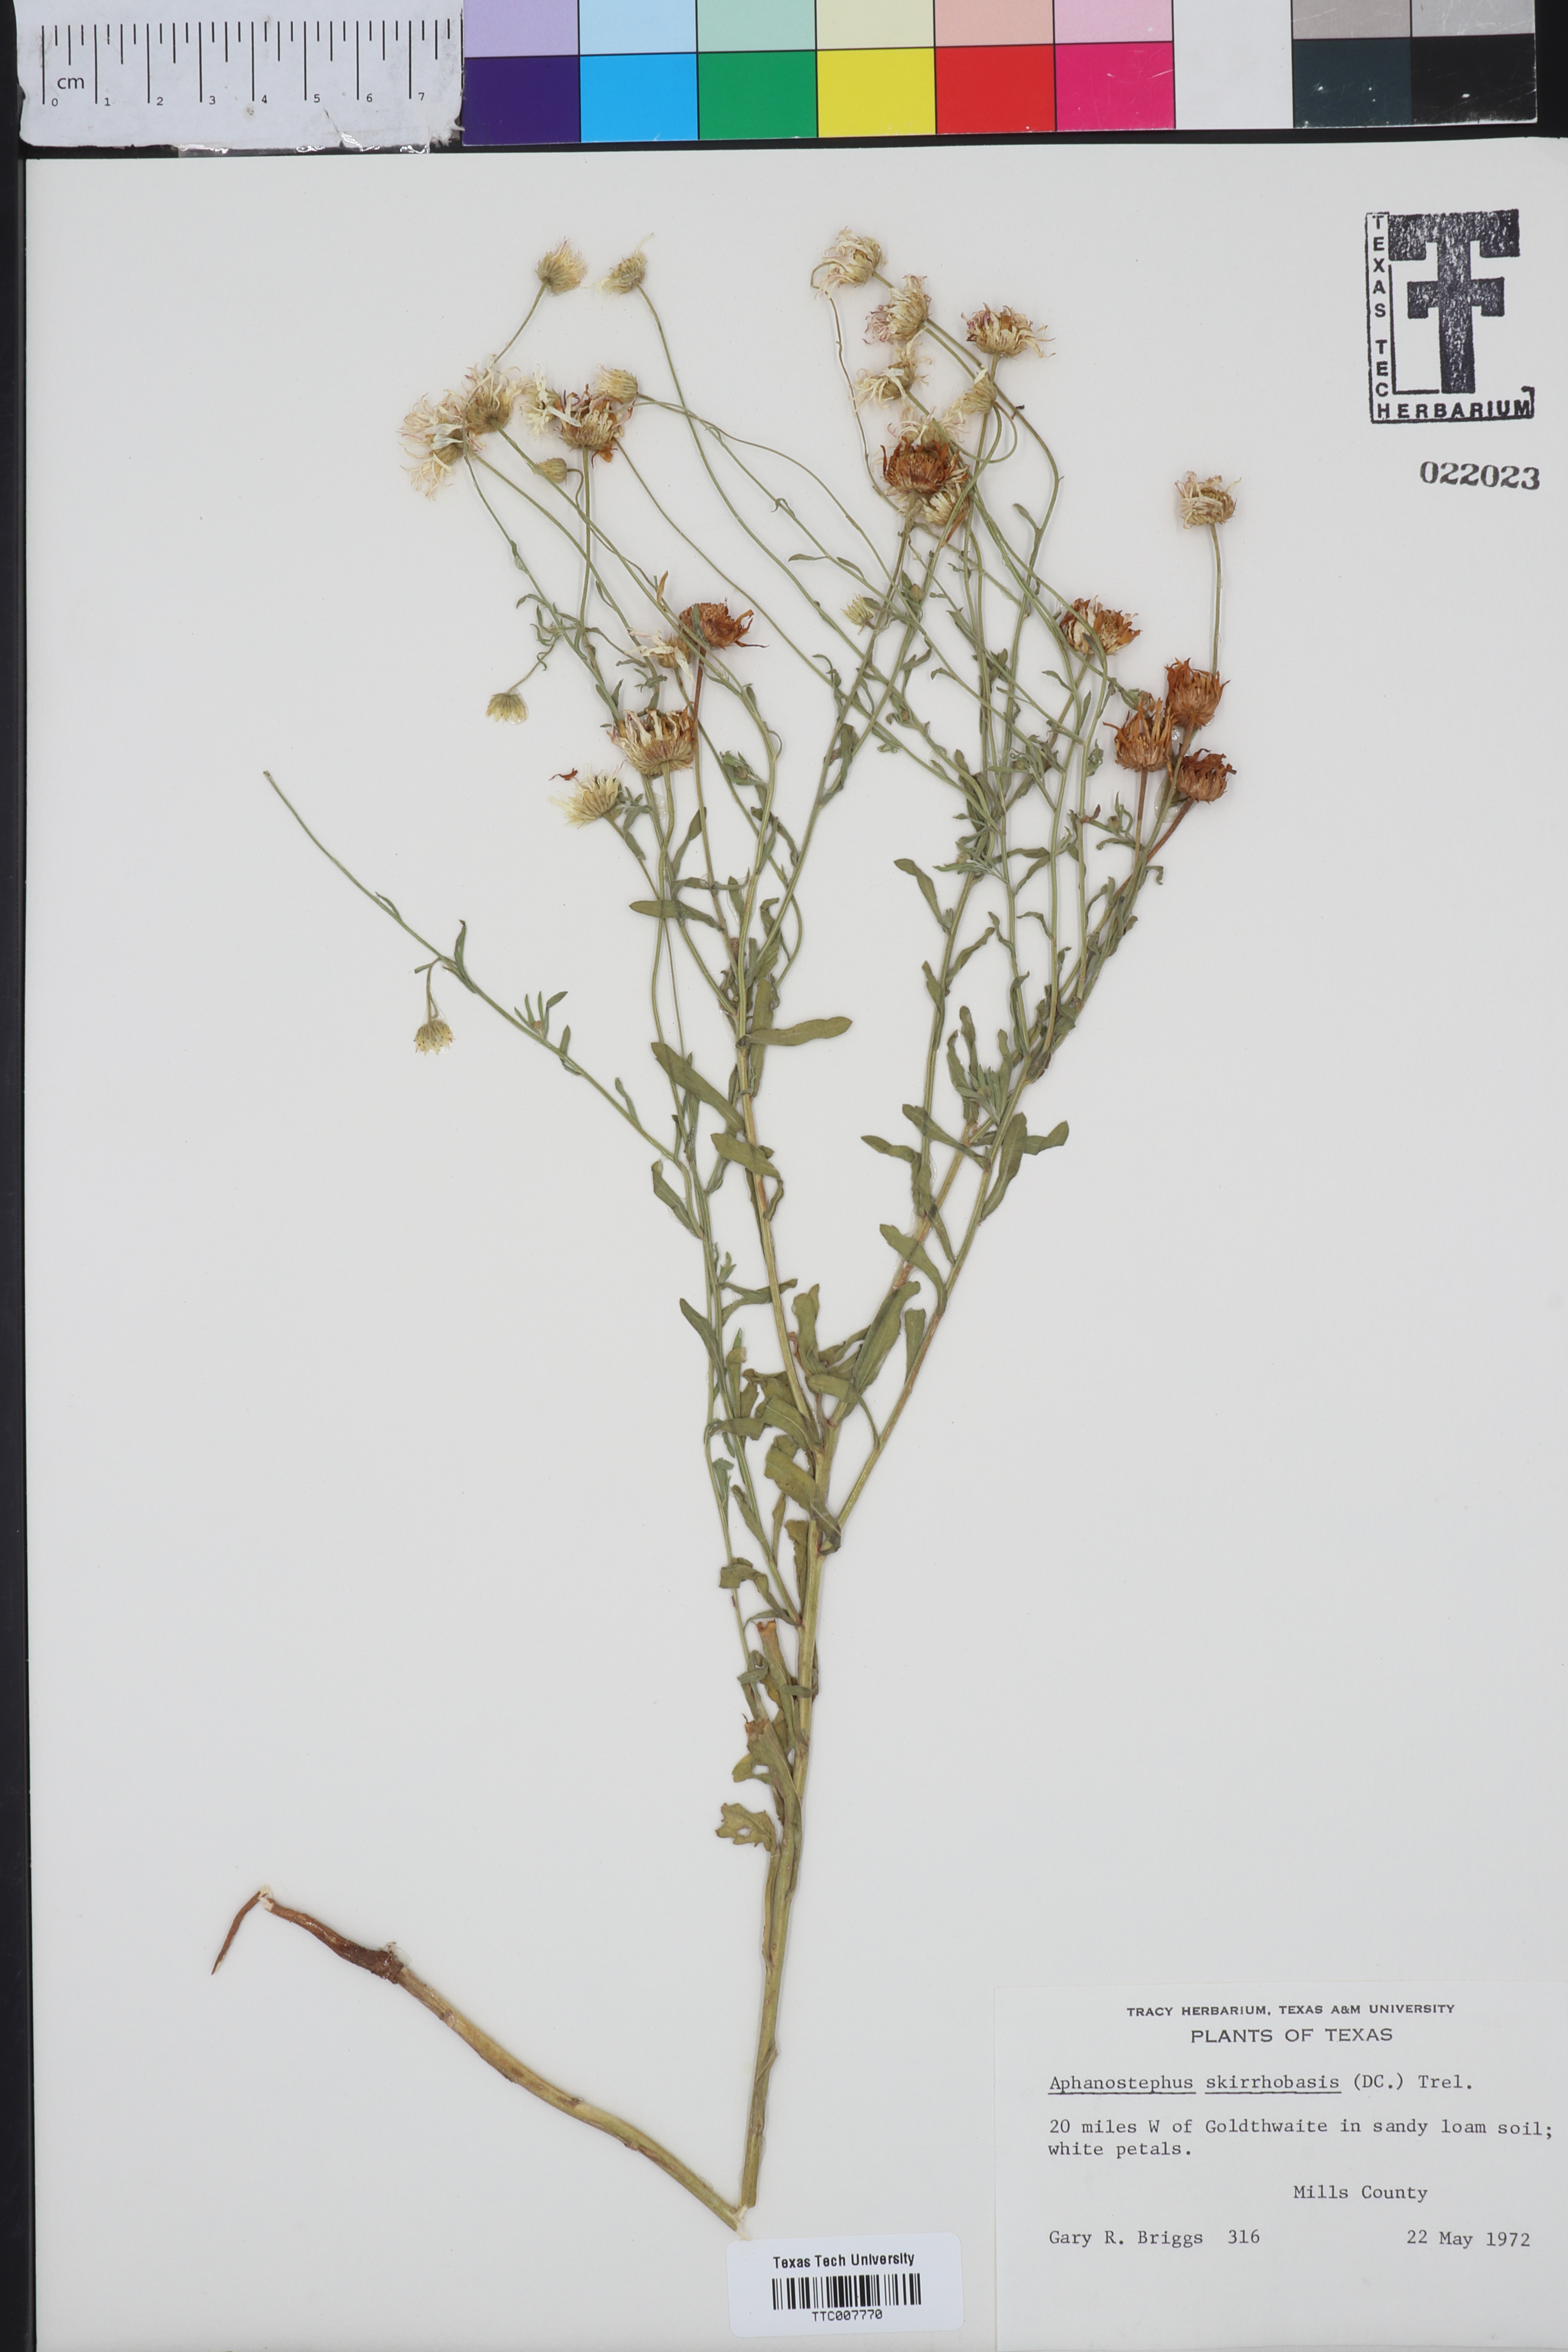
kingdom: Plantae
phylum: Tracheophyta
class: Magnoliopsida
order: Asterales
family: Asteraceae
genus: Aphanostephus
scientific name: Aphanostephus skirrhobasis
